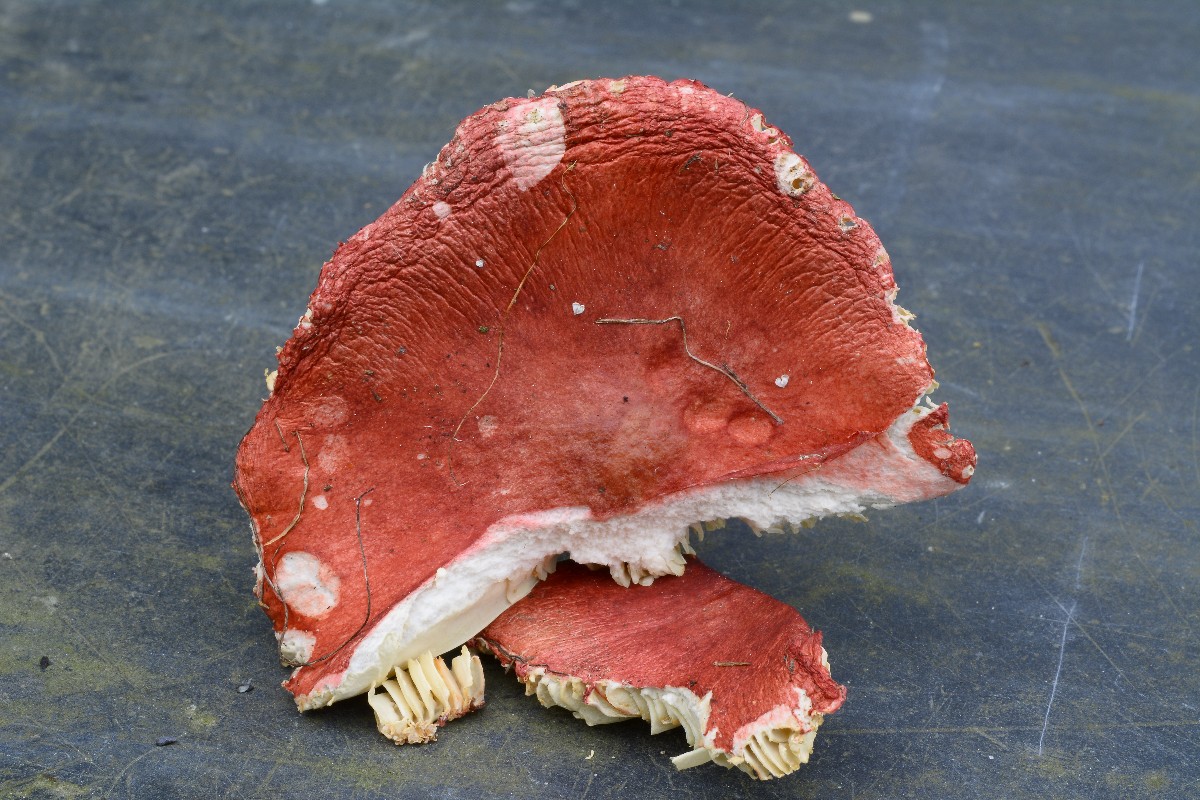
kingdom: Fungi
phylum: Basidiomycota
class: Agaricomycetes
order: Russulales
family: Russulaceae
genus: Russula
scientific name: Russula sanguinea
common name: blodrød skørhat
